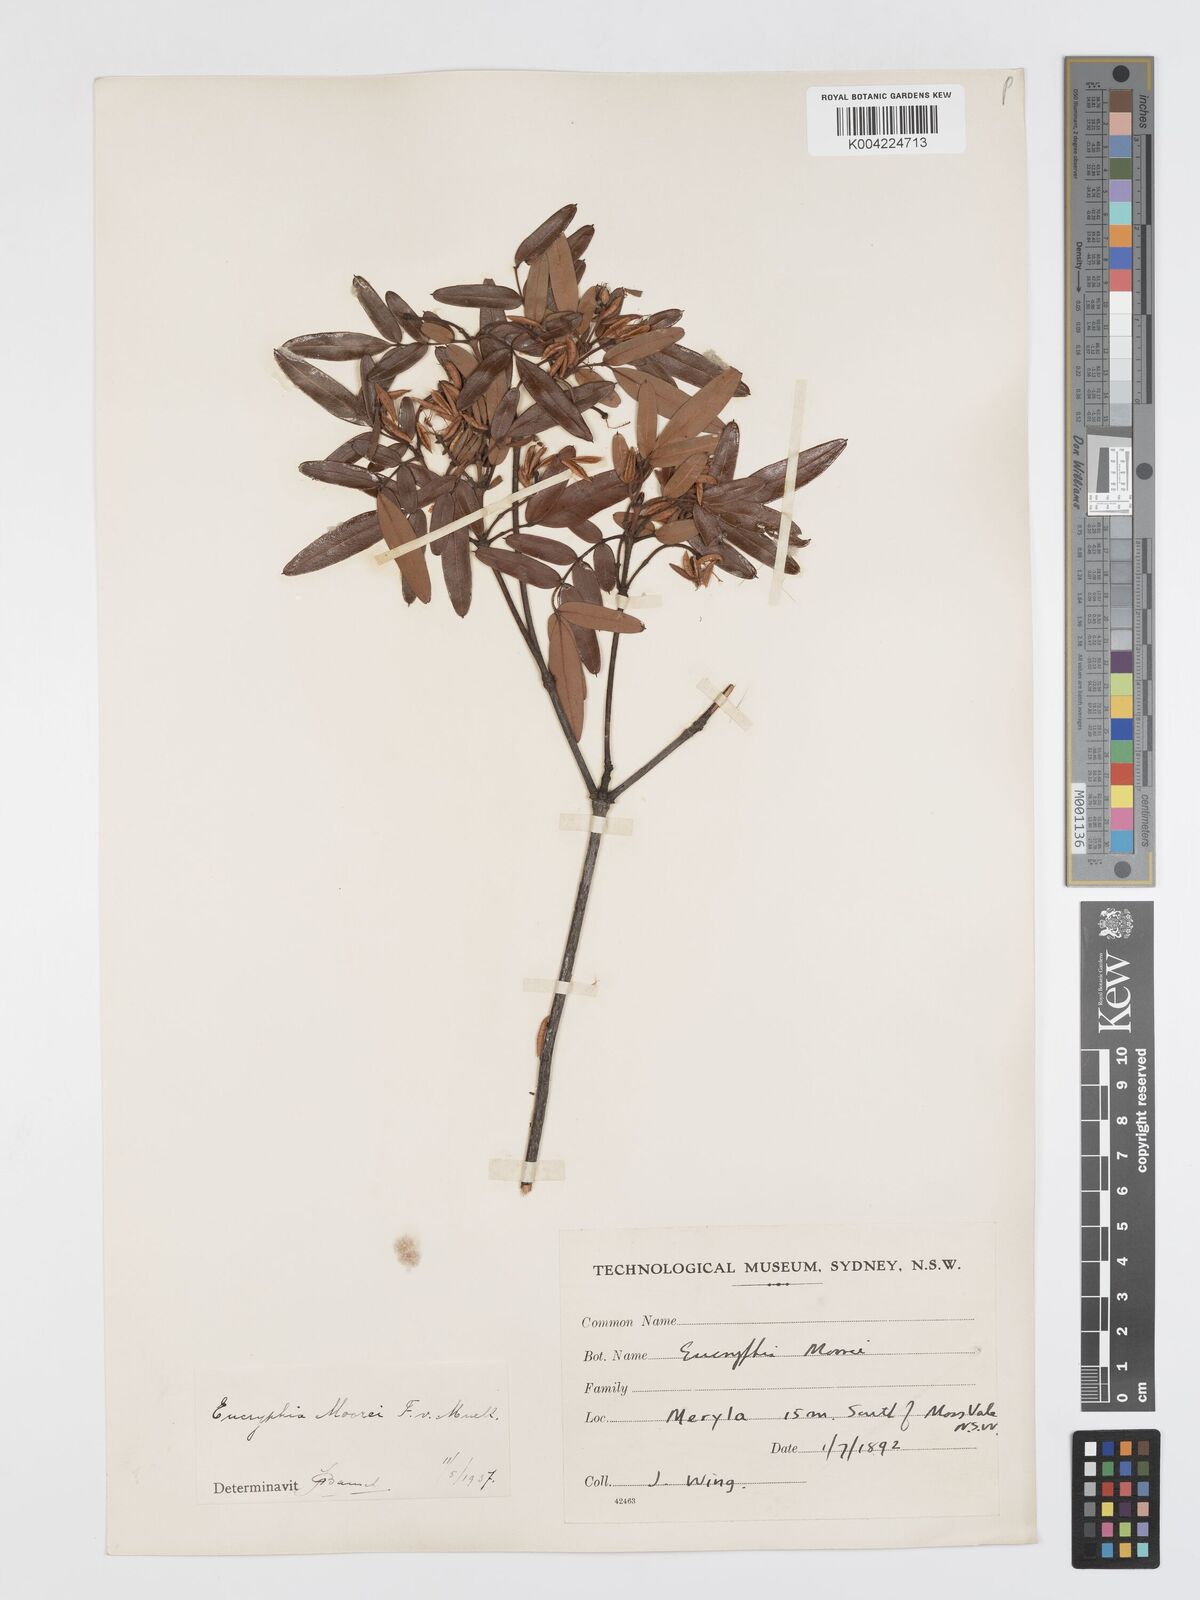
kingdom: Plantae
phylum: Tracheophyta
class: Magnoliopsida
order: Oxalidales
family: Cunoniaceae
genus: Eucryphia
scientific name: Eucryphia moorei
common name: Acacia-plum
